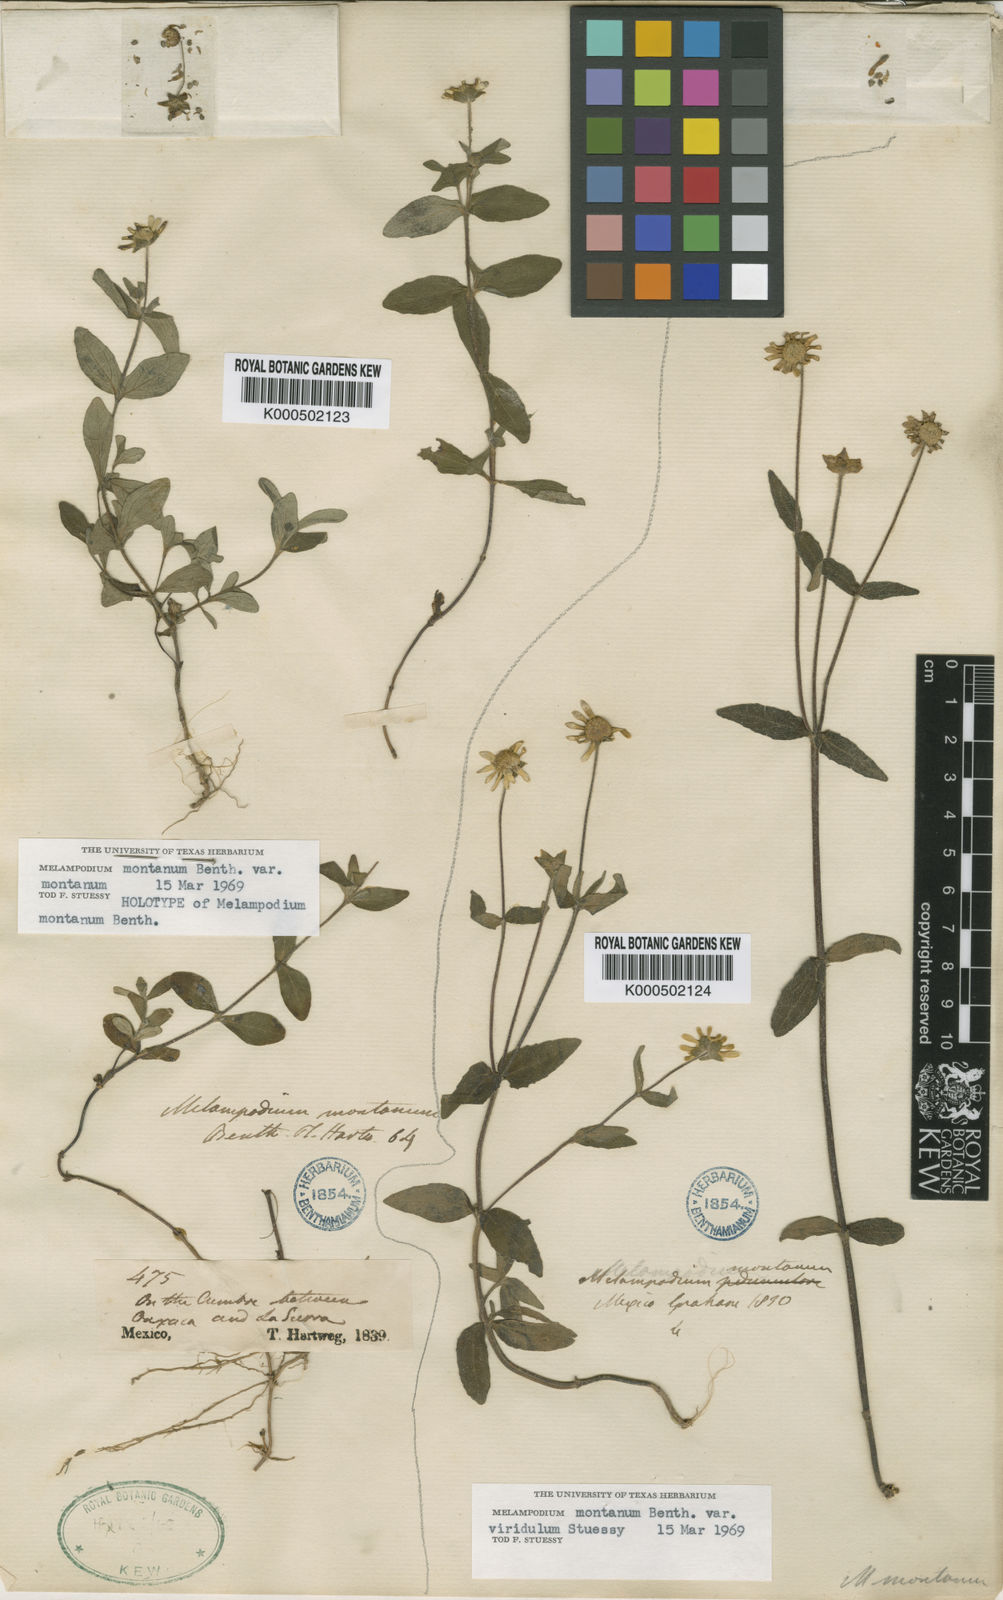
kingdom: Plantae
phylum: Tracheophyta
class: Magnoliopsida
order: Asterales
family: Asteraceae
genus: Melampodium
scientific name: Melampodium montanum
